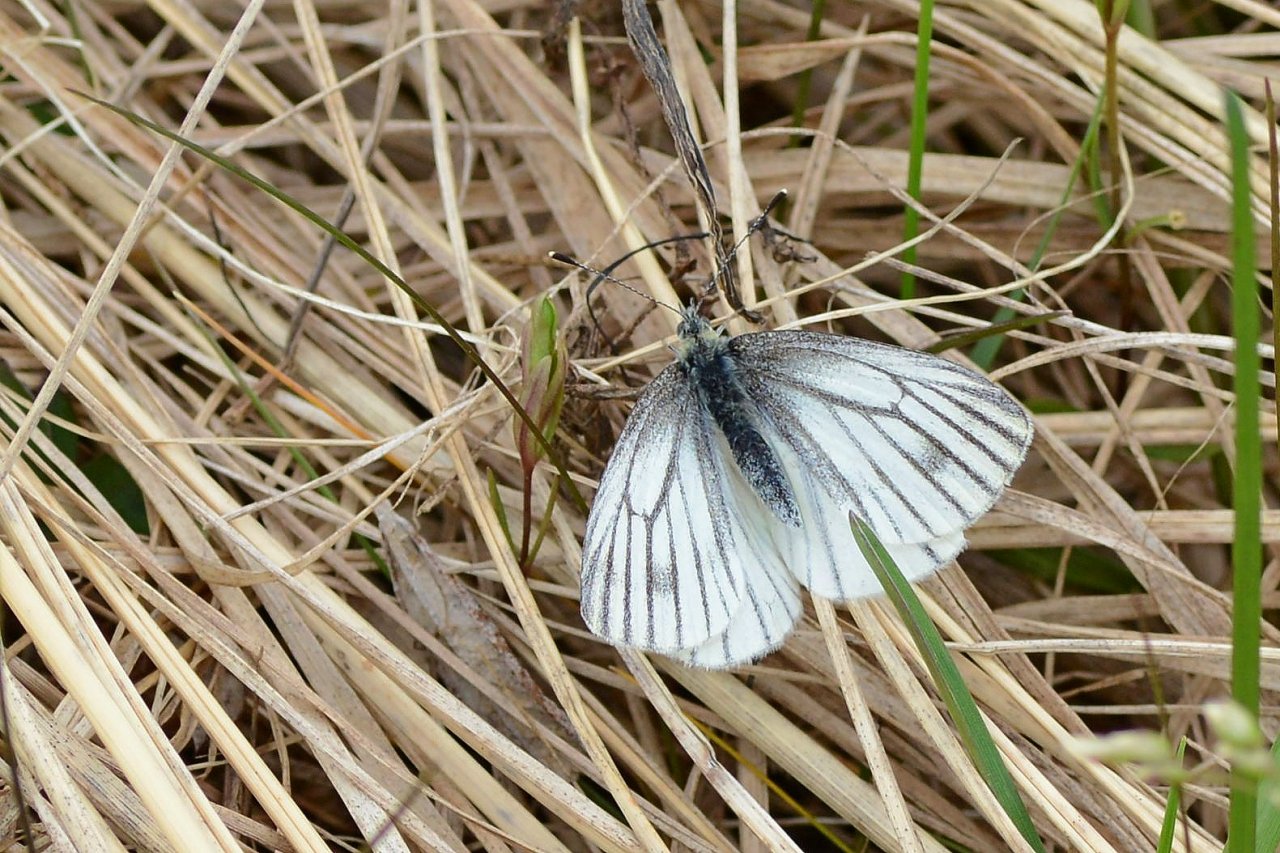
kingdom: Animalia
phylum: Arthropoda
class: Insecta
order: Lepidoptera
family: Pieridae
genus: Pieris
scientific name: Pieris oleracea
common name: Mustard White
